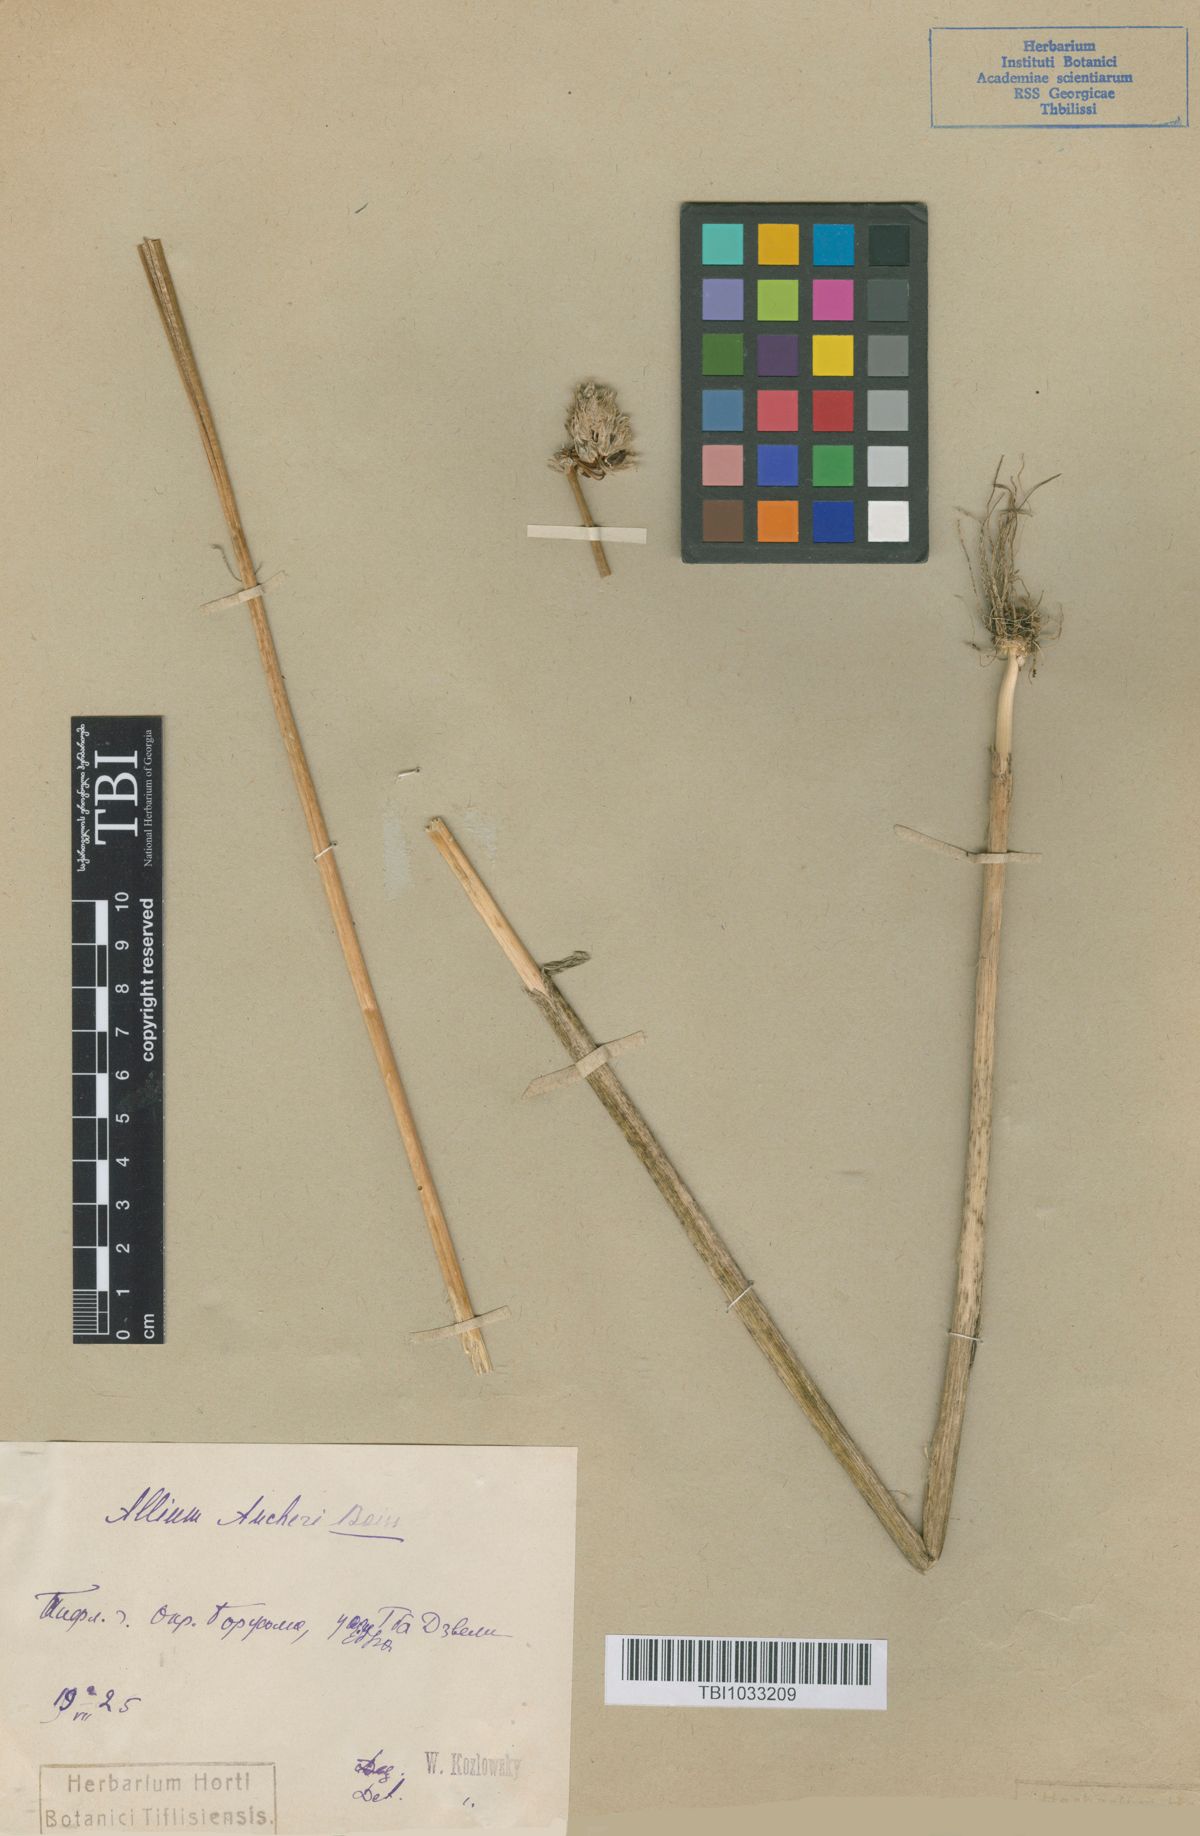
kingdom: Plantae
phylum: Tracheophyta
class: Liliopsida
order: Asparagales
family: Amaryllidaceae
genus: Allium
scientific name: Allium aucheri
